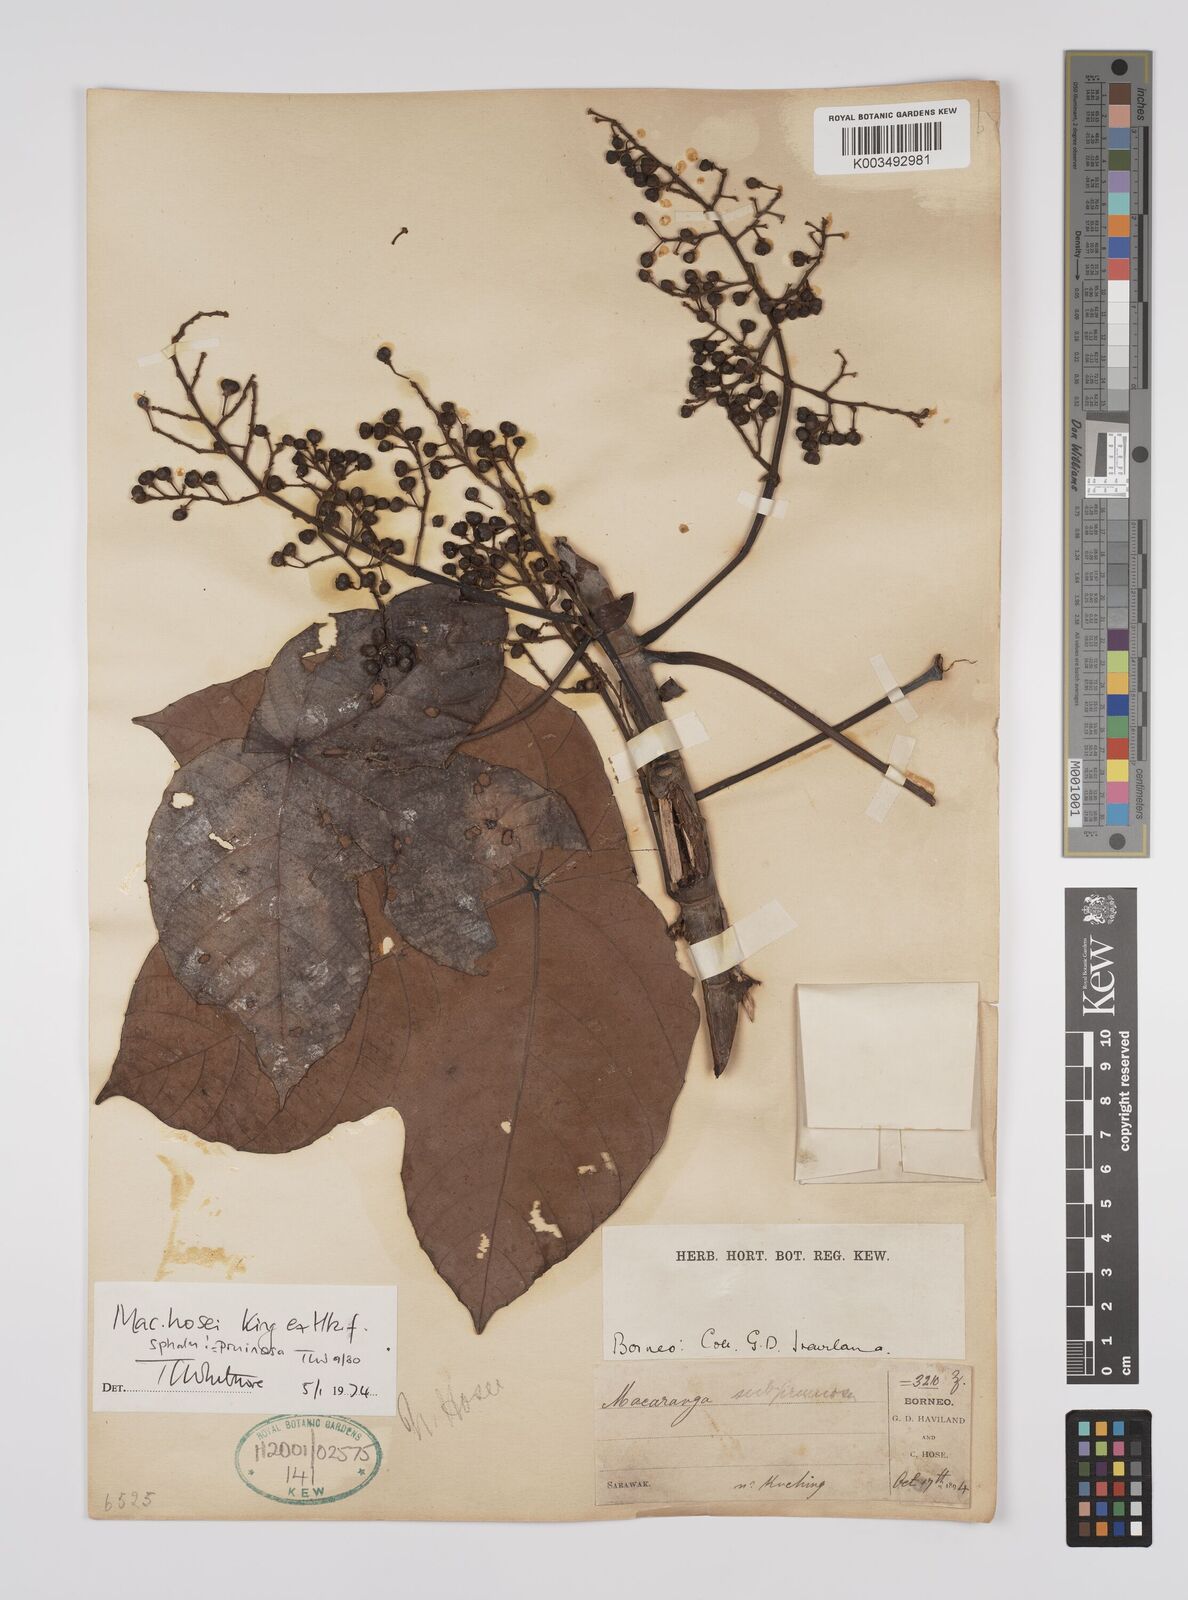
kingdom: Plantae
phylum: Tracheophyta
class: Magnoliopsida
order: Malpighiales
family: Euphorbiaceae
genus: Macaranga
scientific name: Macaranga pruinosa
